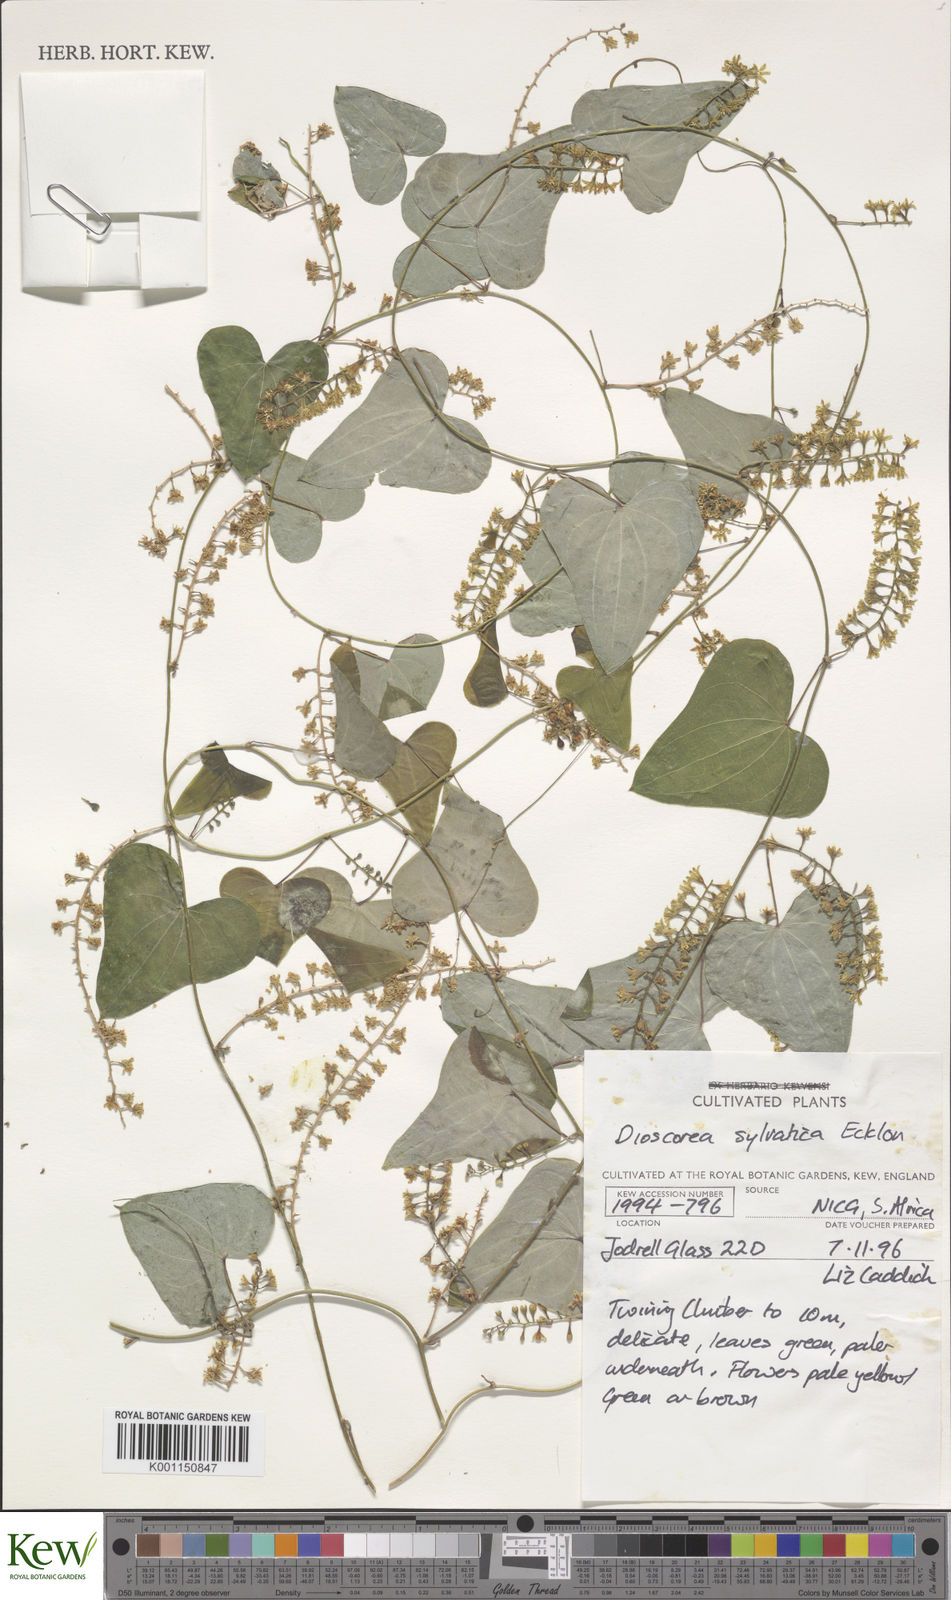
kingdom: Plantae
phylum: Tracheophyta
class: Liliopsida
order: Dioscoreales
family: Dioscoreaceae
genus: Dioscorea
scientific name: Dioscorea sylvatica
